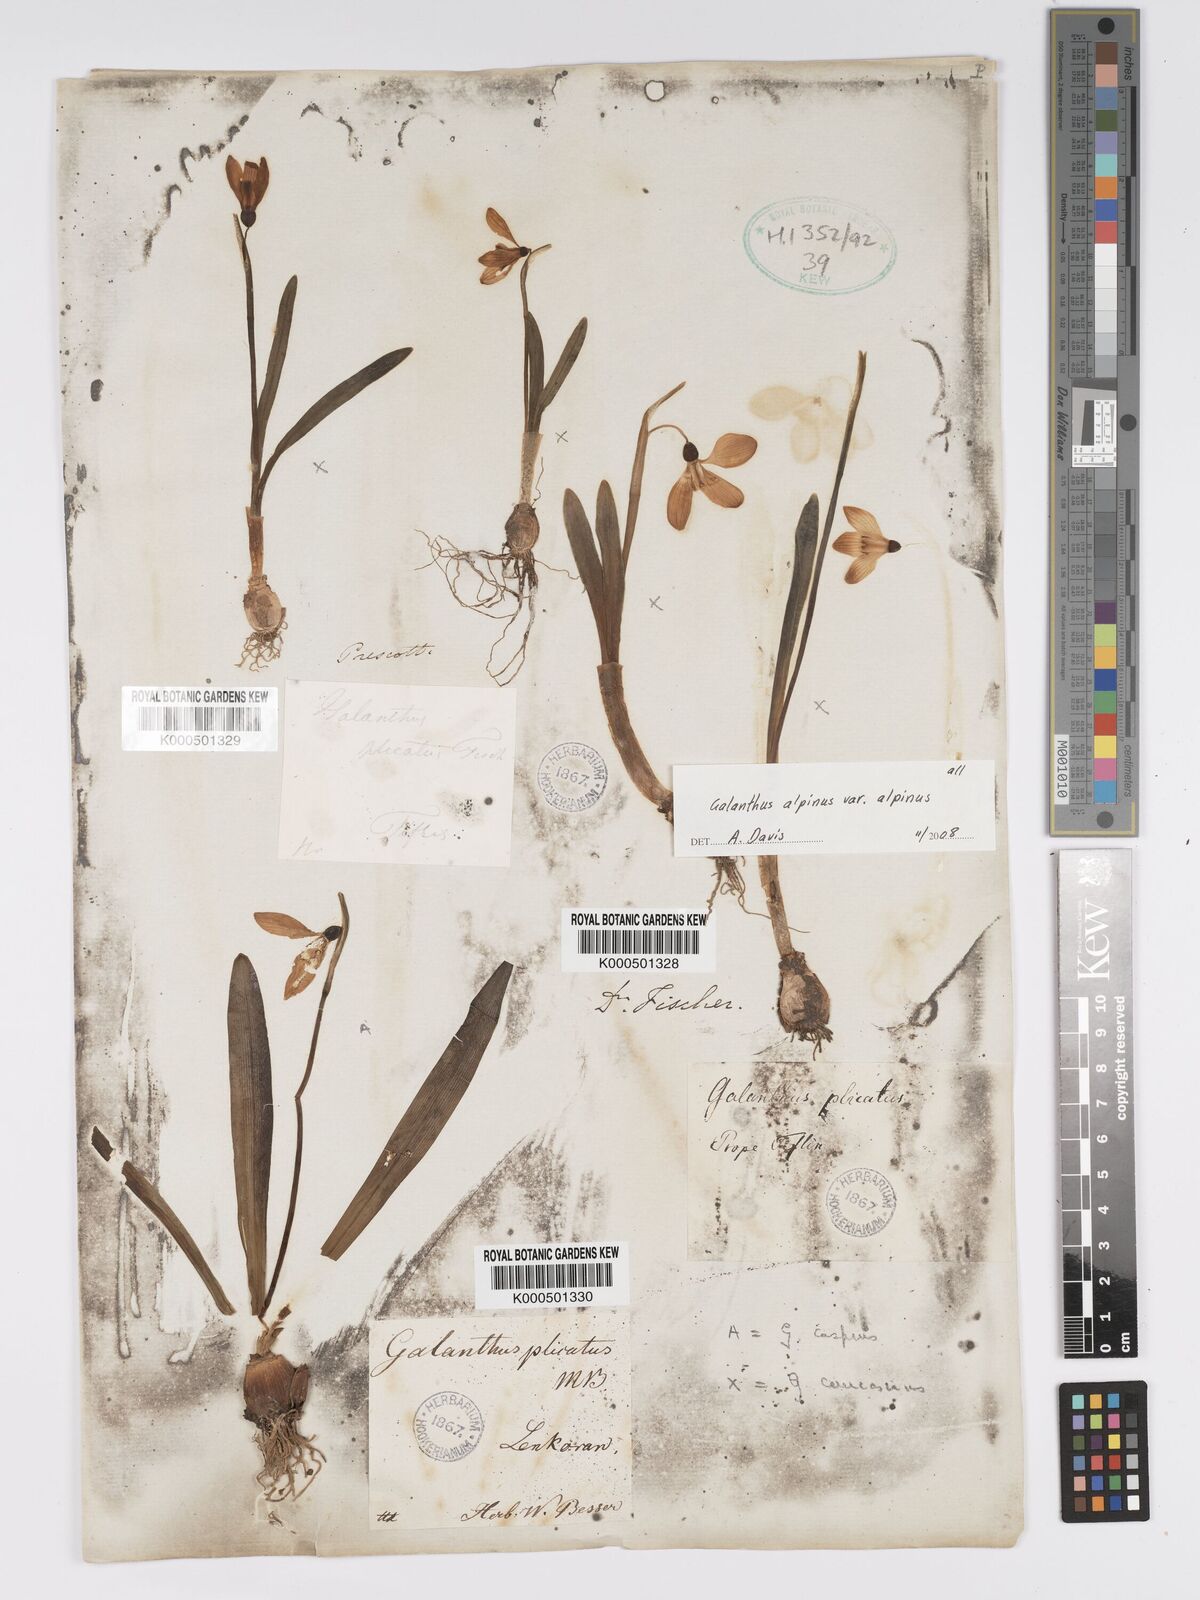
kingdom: Plantae
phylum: Tracheophyta
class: Liliopsida
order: Asparagales
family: Amaryllidaceae
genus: Galanthus
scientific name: Galanthus alpinus
